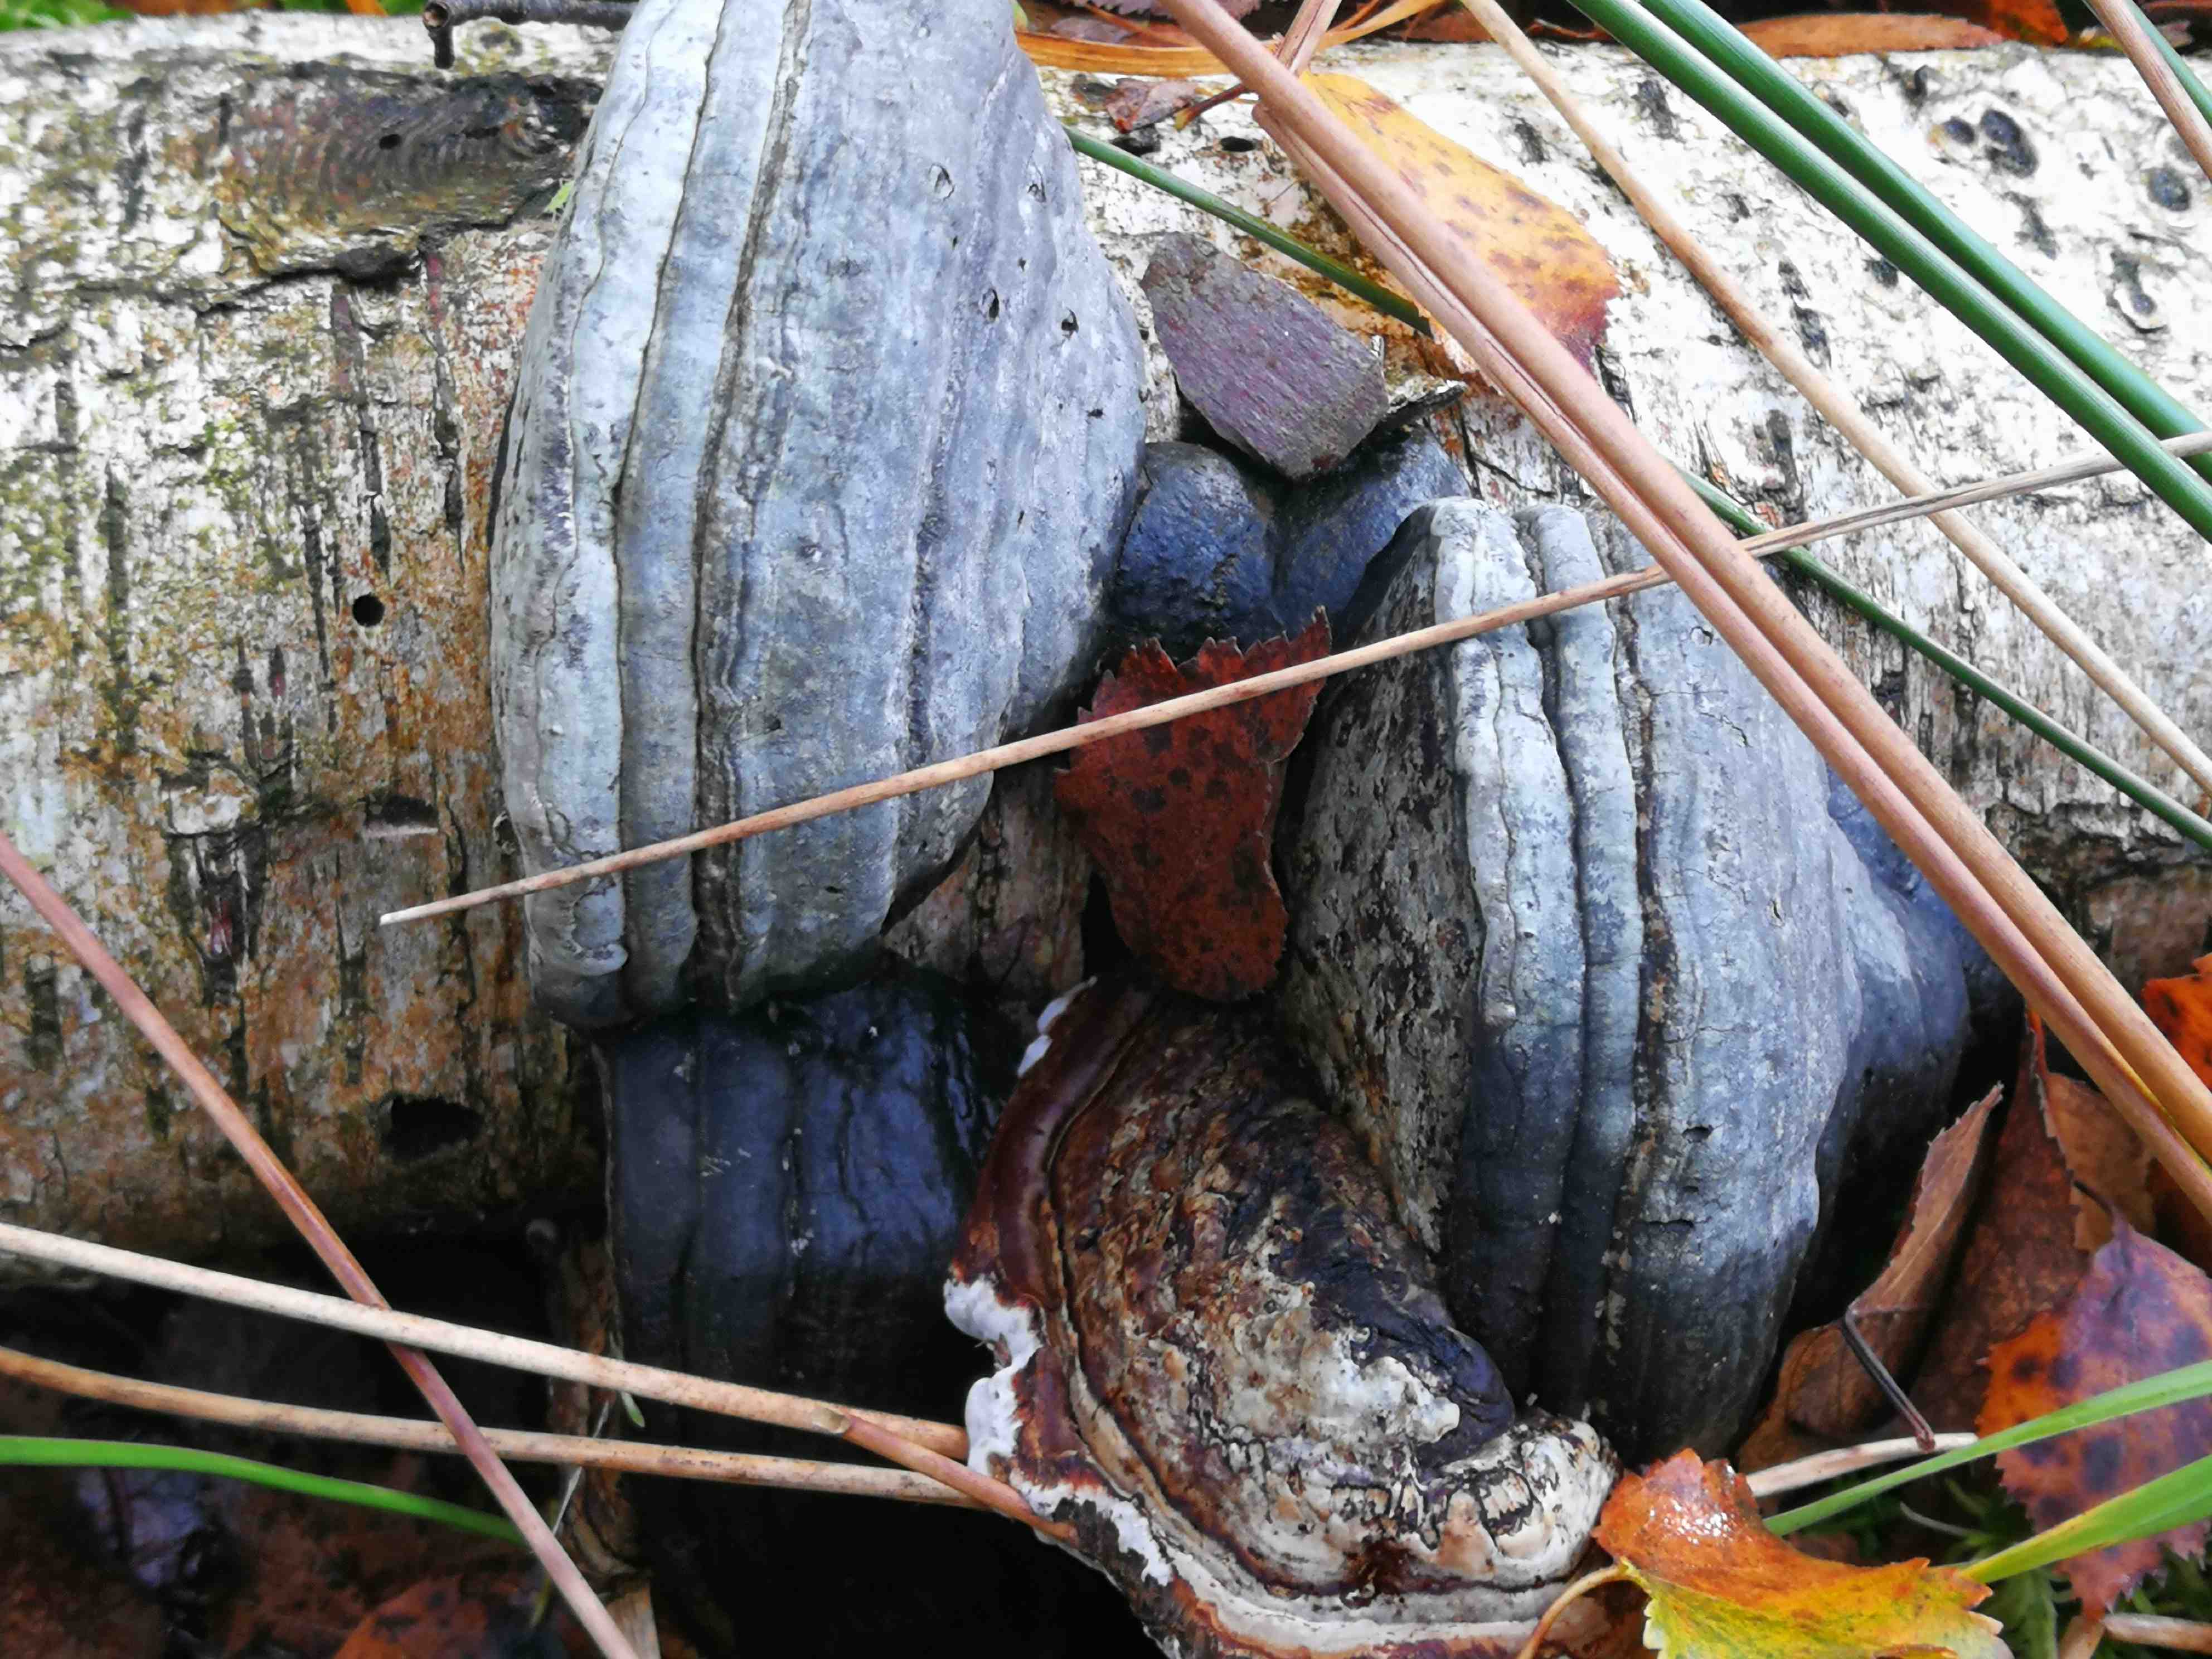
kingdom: Fungi
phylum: Basidiomycota
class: Agaricomycetes
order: Polyporales
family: Polyporaceae
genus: Fomes
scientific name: Fomes fomentarius
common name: tøndersvamp
